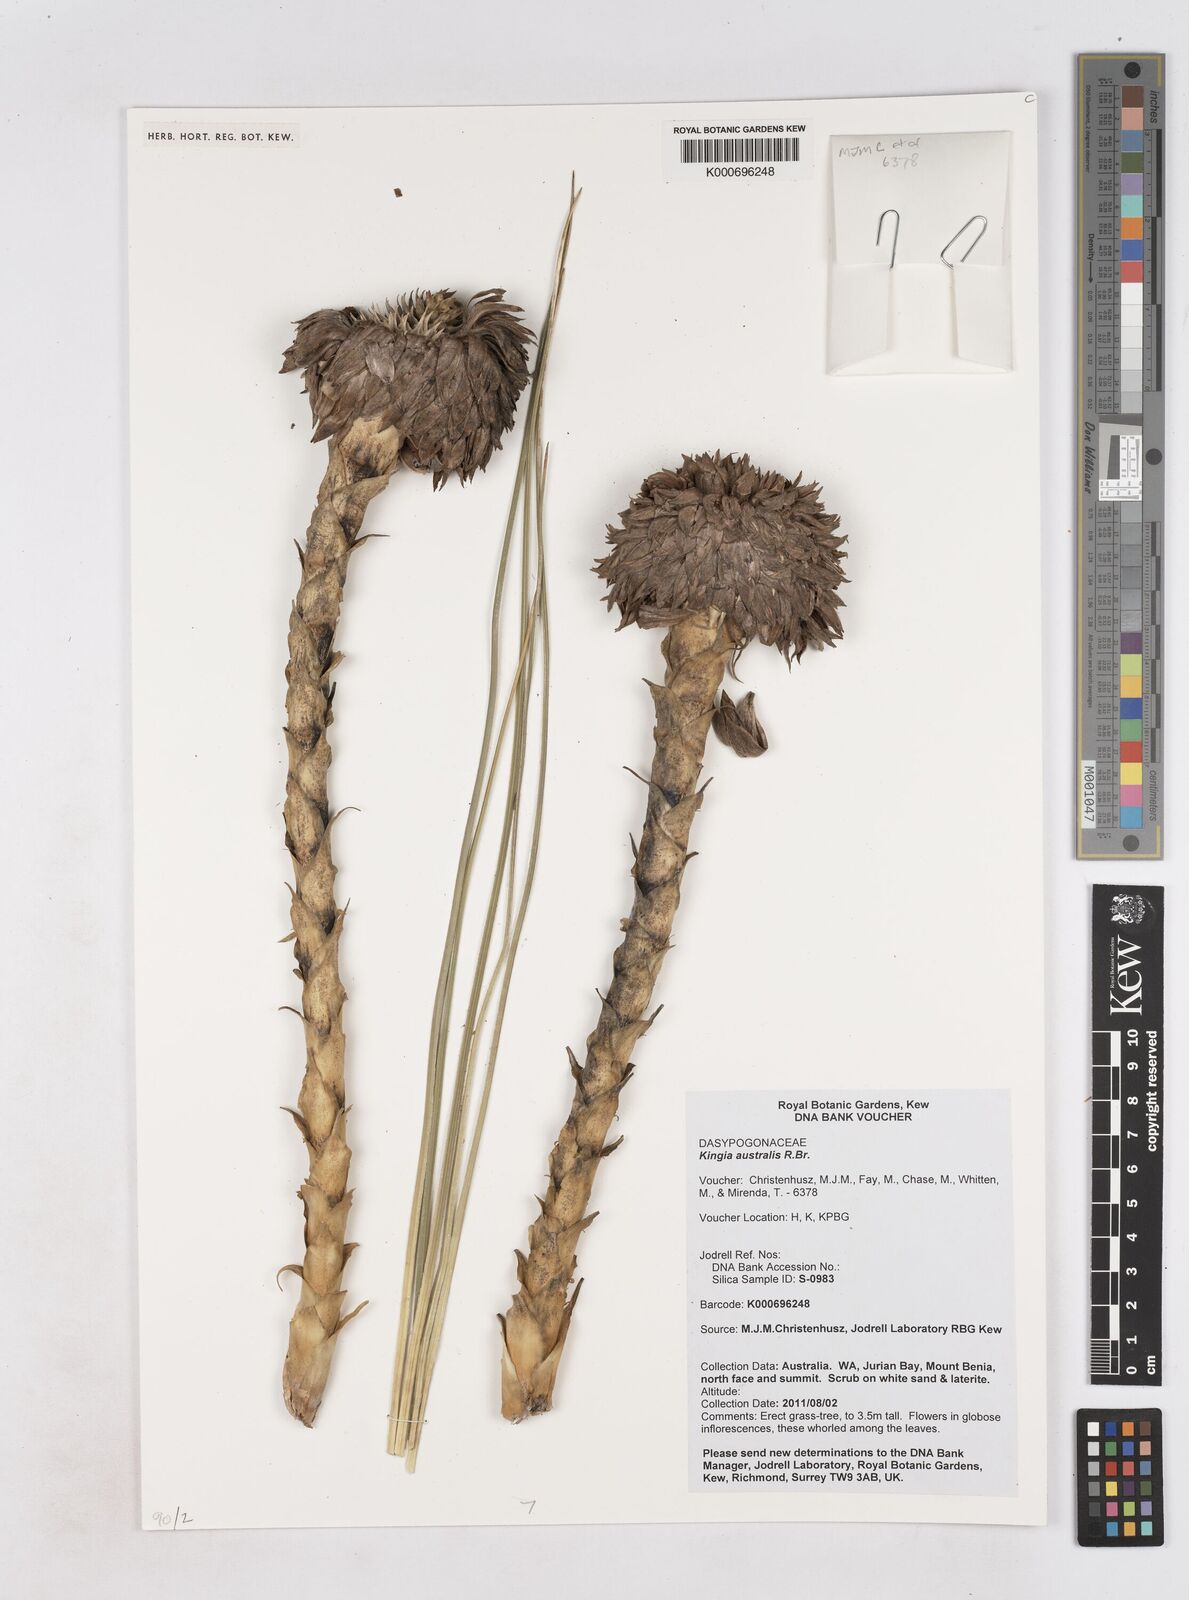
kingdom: Plantae
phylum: Tracheophyta
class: Liliopsida
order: Arecales
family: Dasypogonaceae
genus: Kingia
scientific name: Kingia australis
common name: Black gin
